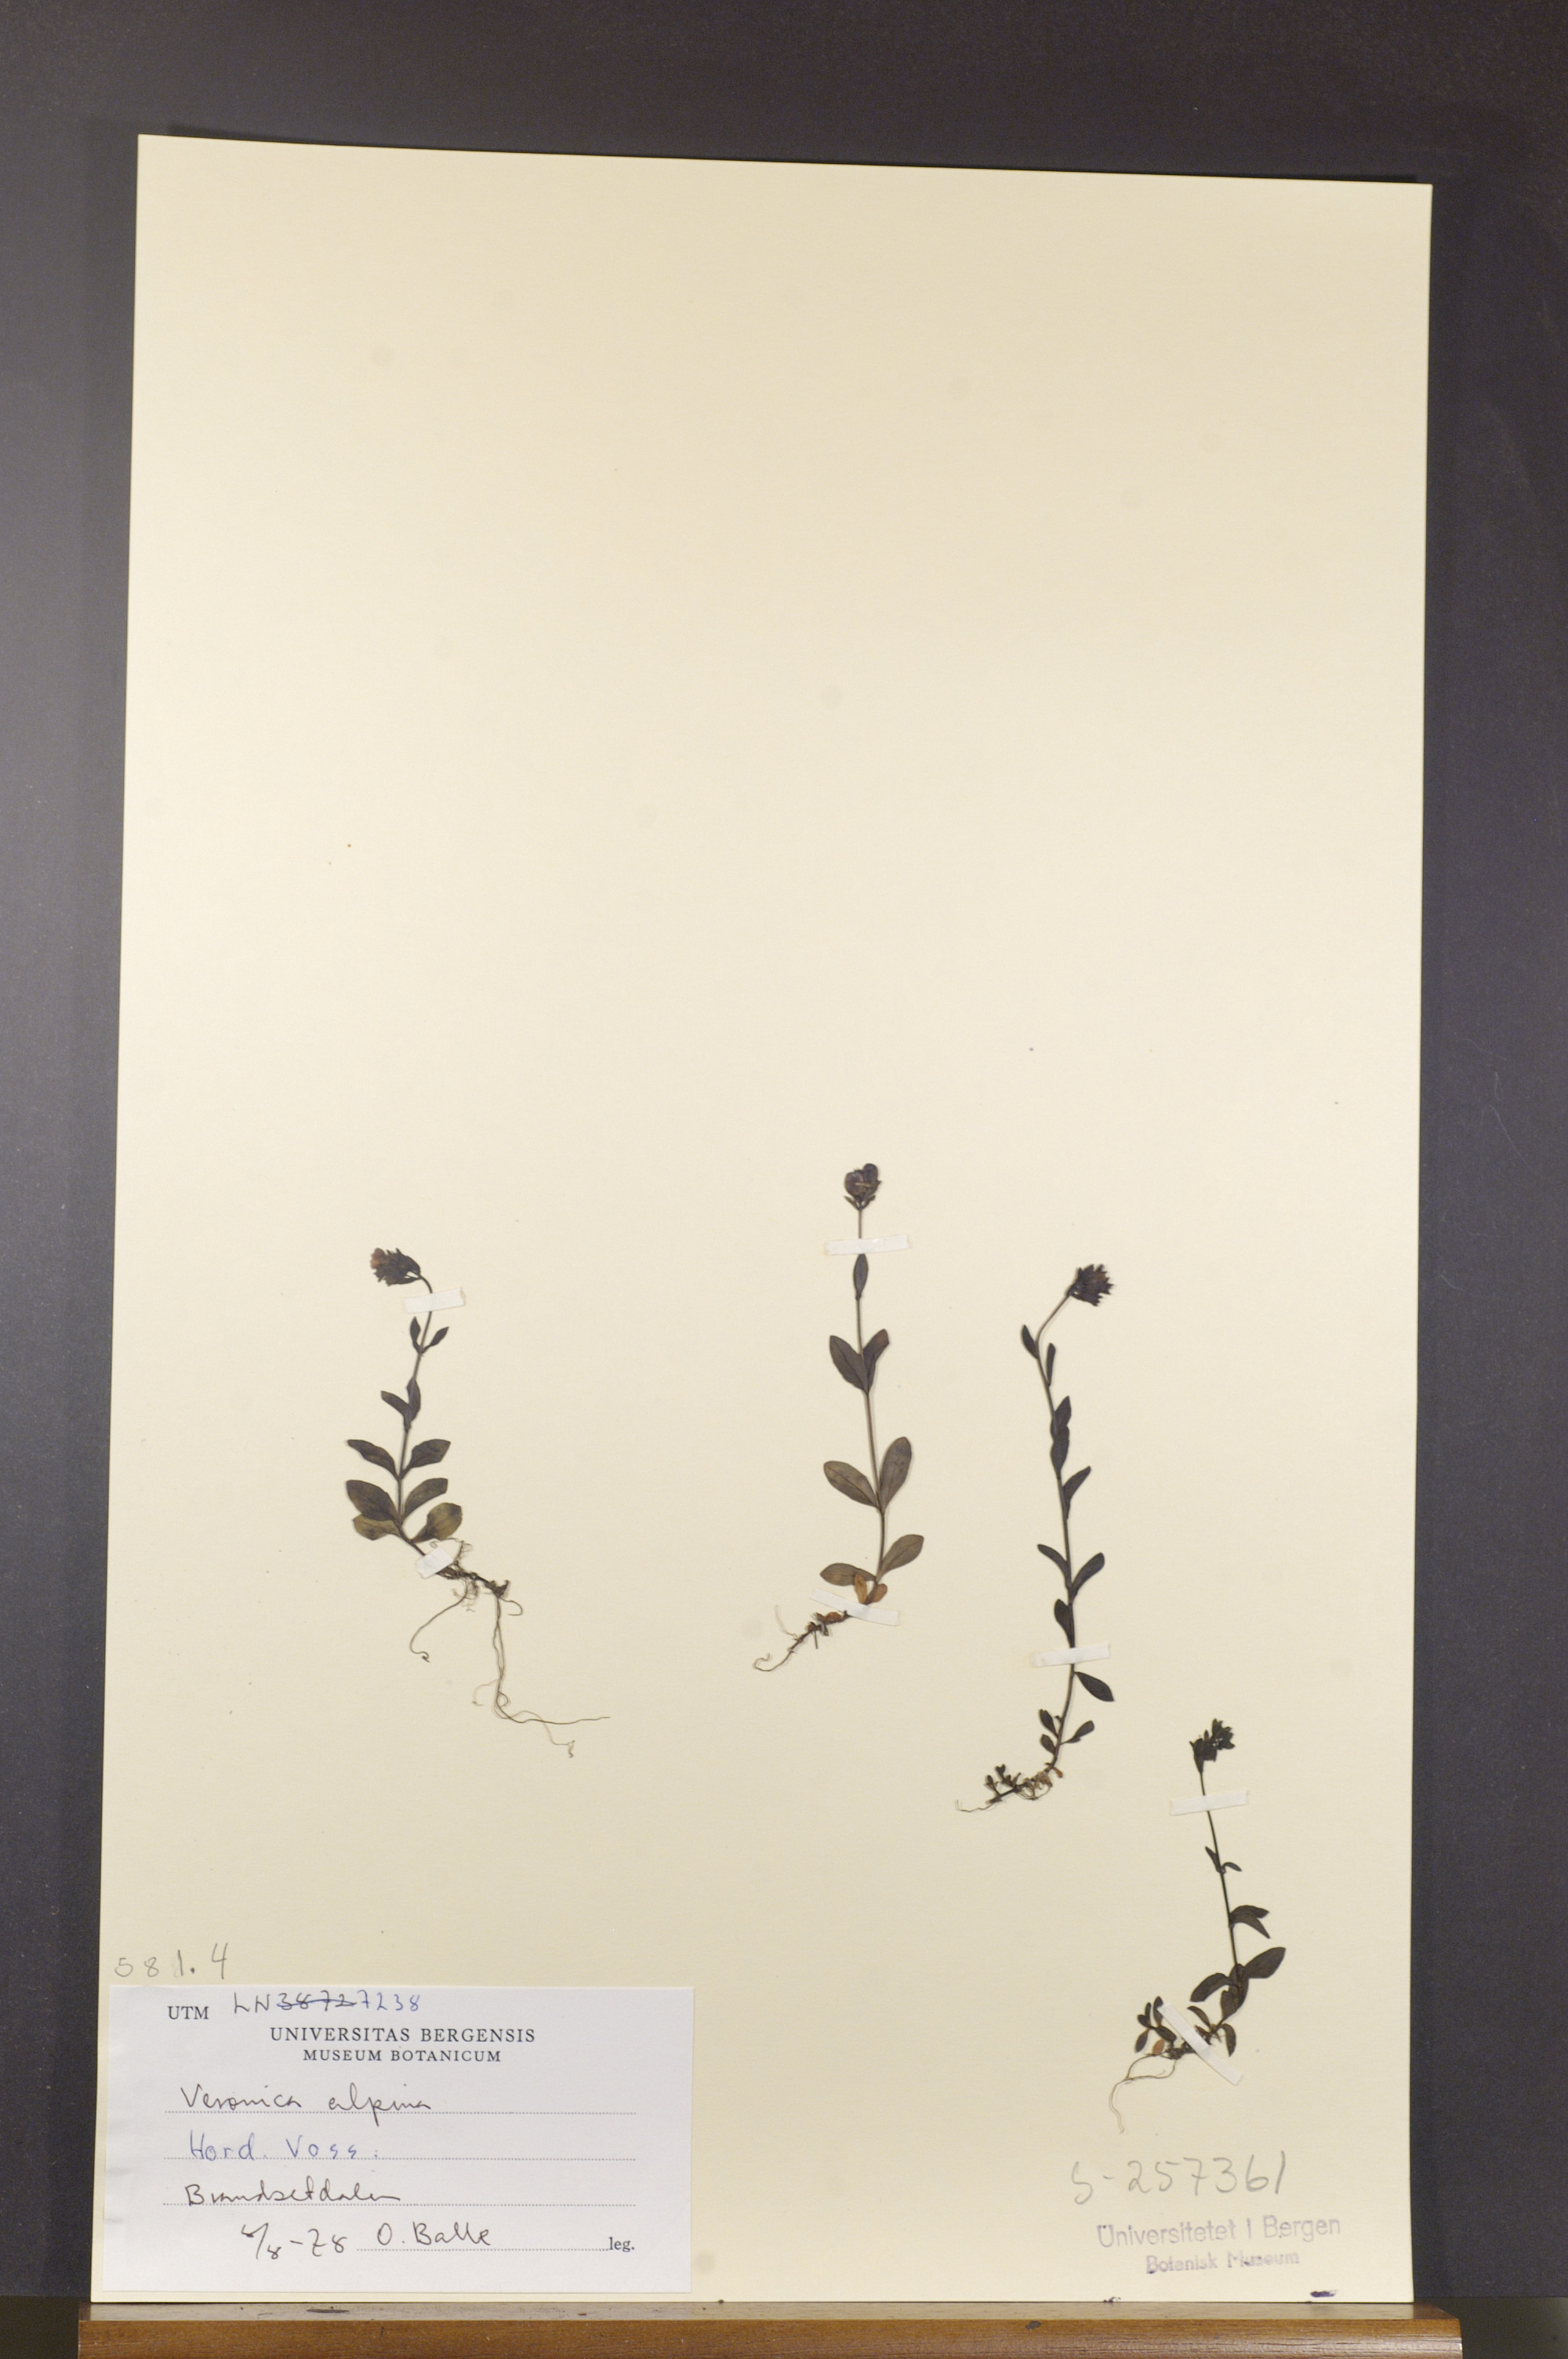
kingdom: Plantae
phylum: Tracheophyta
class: Magnoliopsida
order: Lamiales
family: Plantaginaceae
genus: Veronica
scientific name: Veronica alpina
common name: Alpine speedwell
